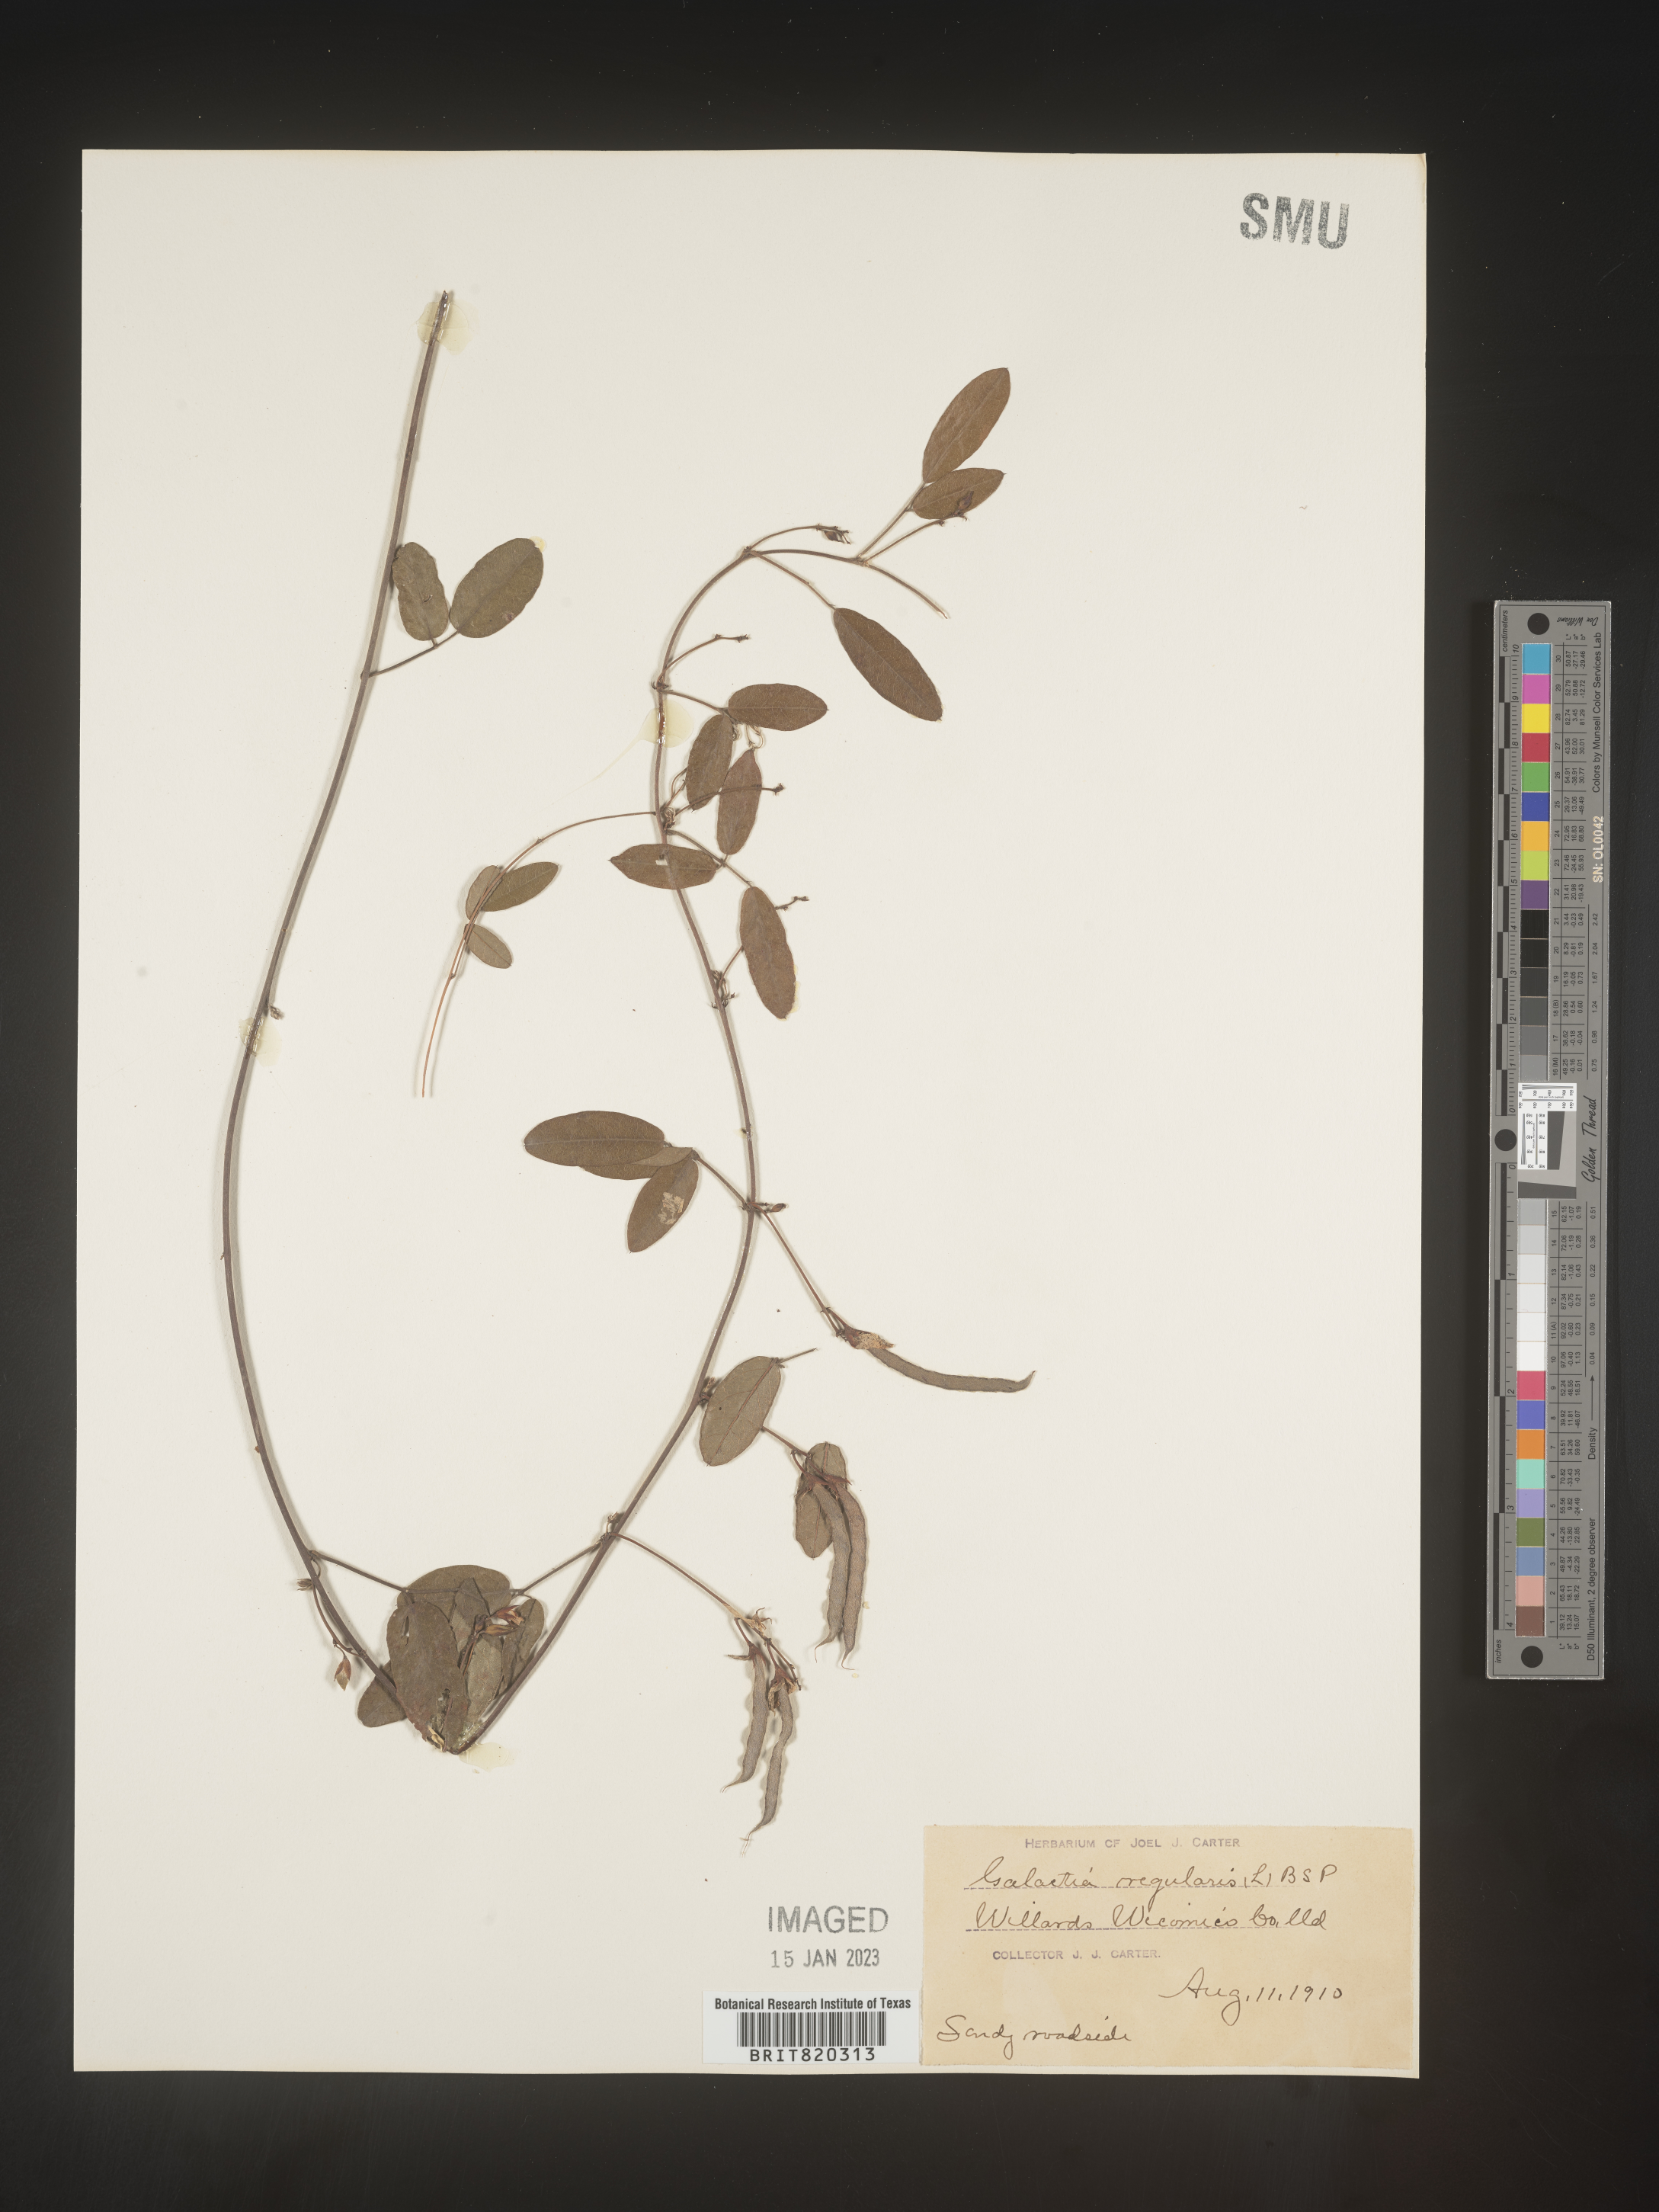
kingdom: Plantae
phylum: Tracheophyta
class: Magnoliopsida
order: Fabales
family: Fabaceae
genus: Galactia
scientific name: Galactia regularis
